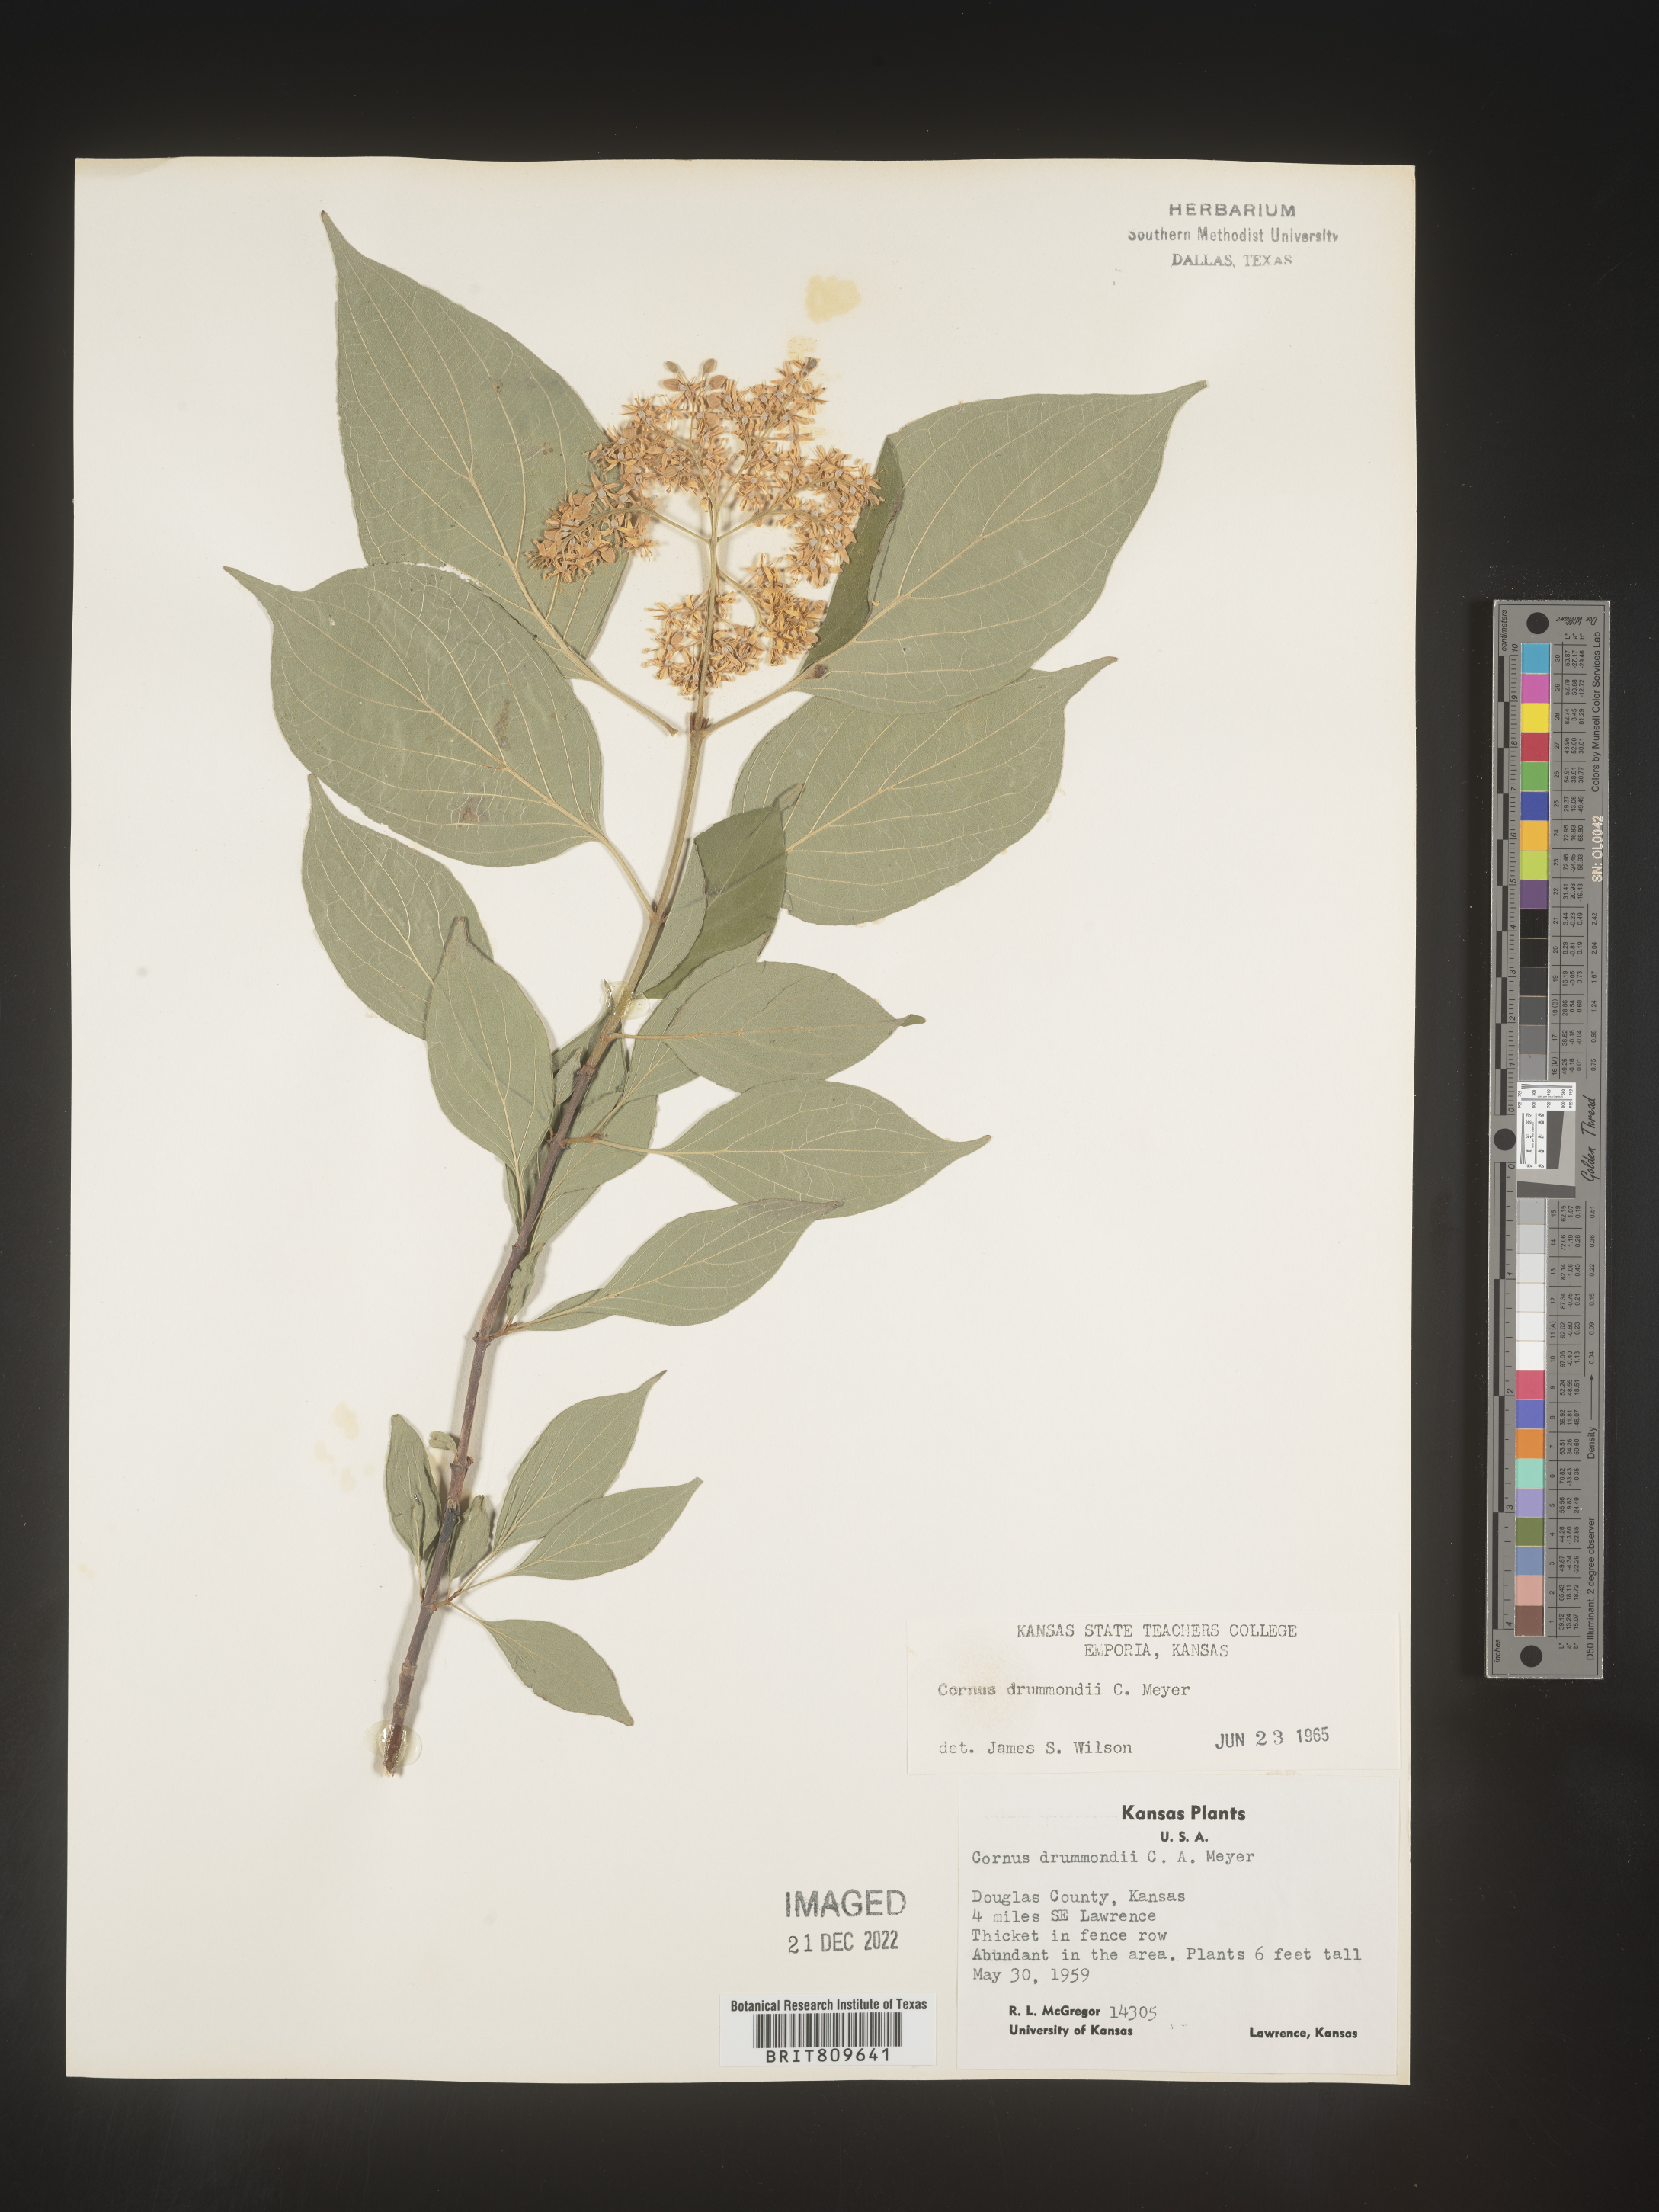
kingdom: Plantae
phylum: Tracheophyta
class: Magnoliopsida
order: Cornales
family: Cornaceae
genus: Cornus
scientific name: Cornus drummondii
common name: Rough-leaf dogwood
